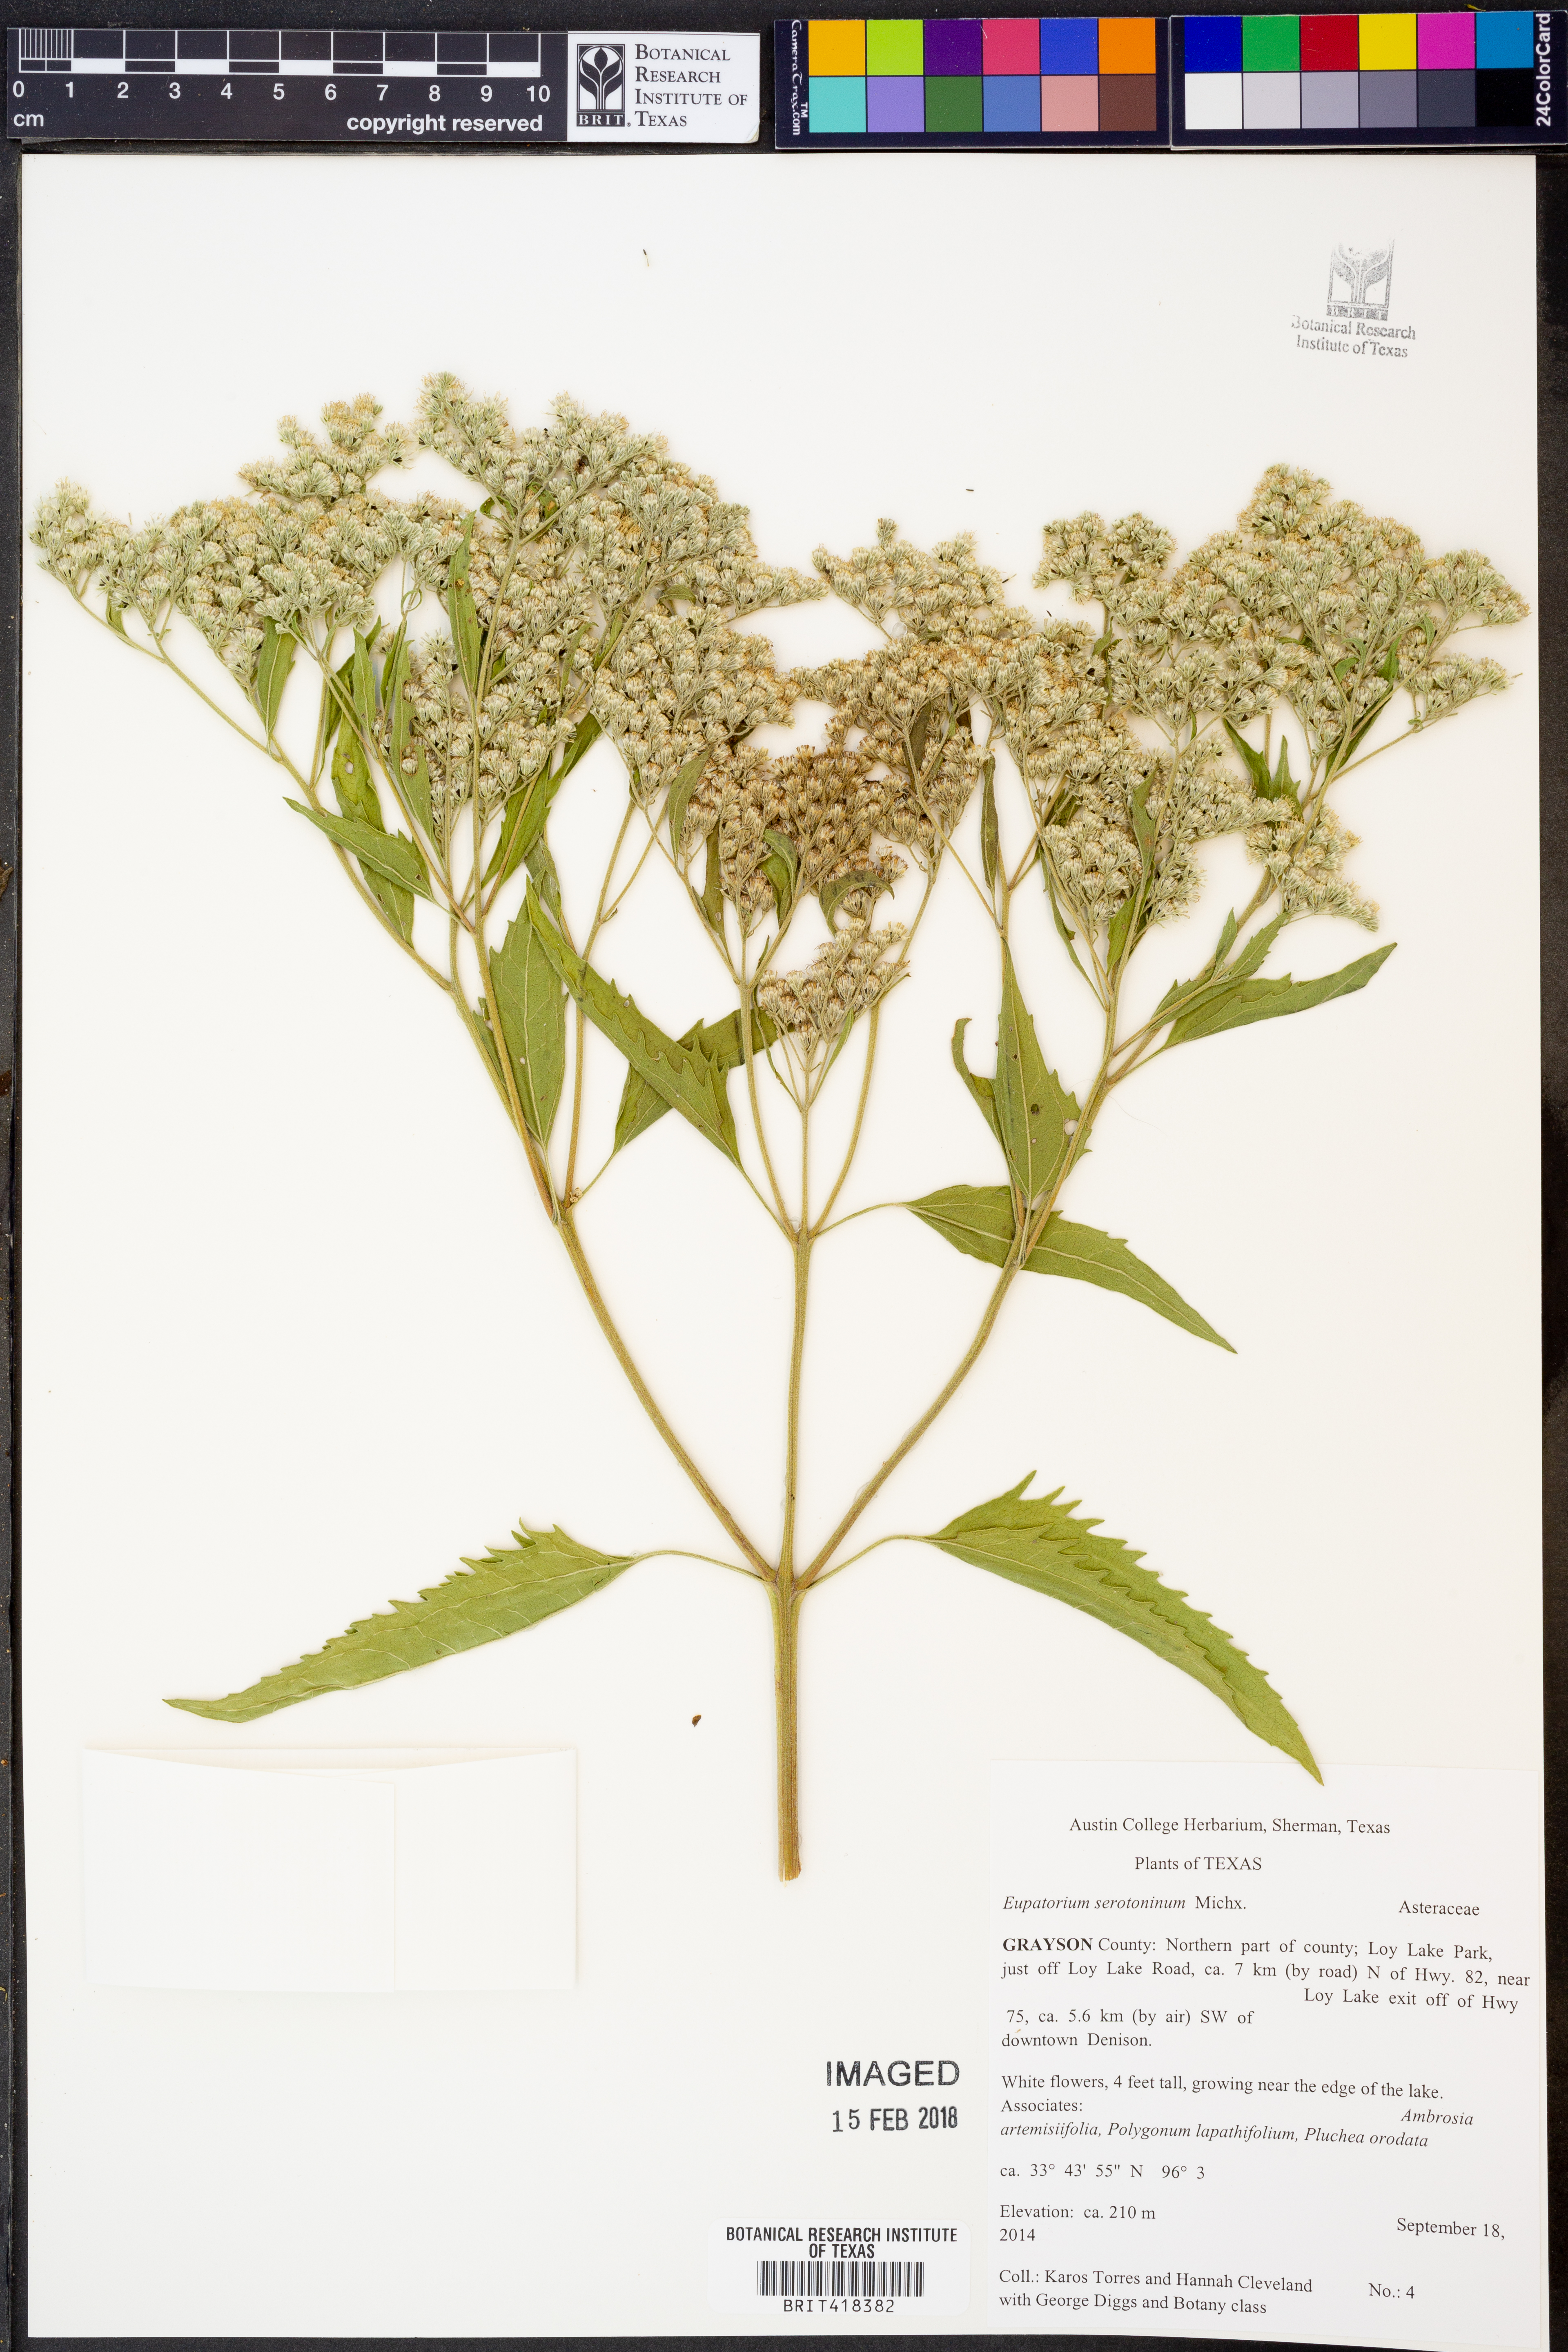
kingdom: Plantae
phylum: Tracheophyta
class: Magnoliopsida
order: Asterales
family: Asteraceae
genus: Eupatorium
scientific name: Eupatorium serotinum
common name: Late boneset
